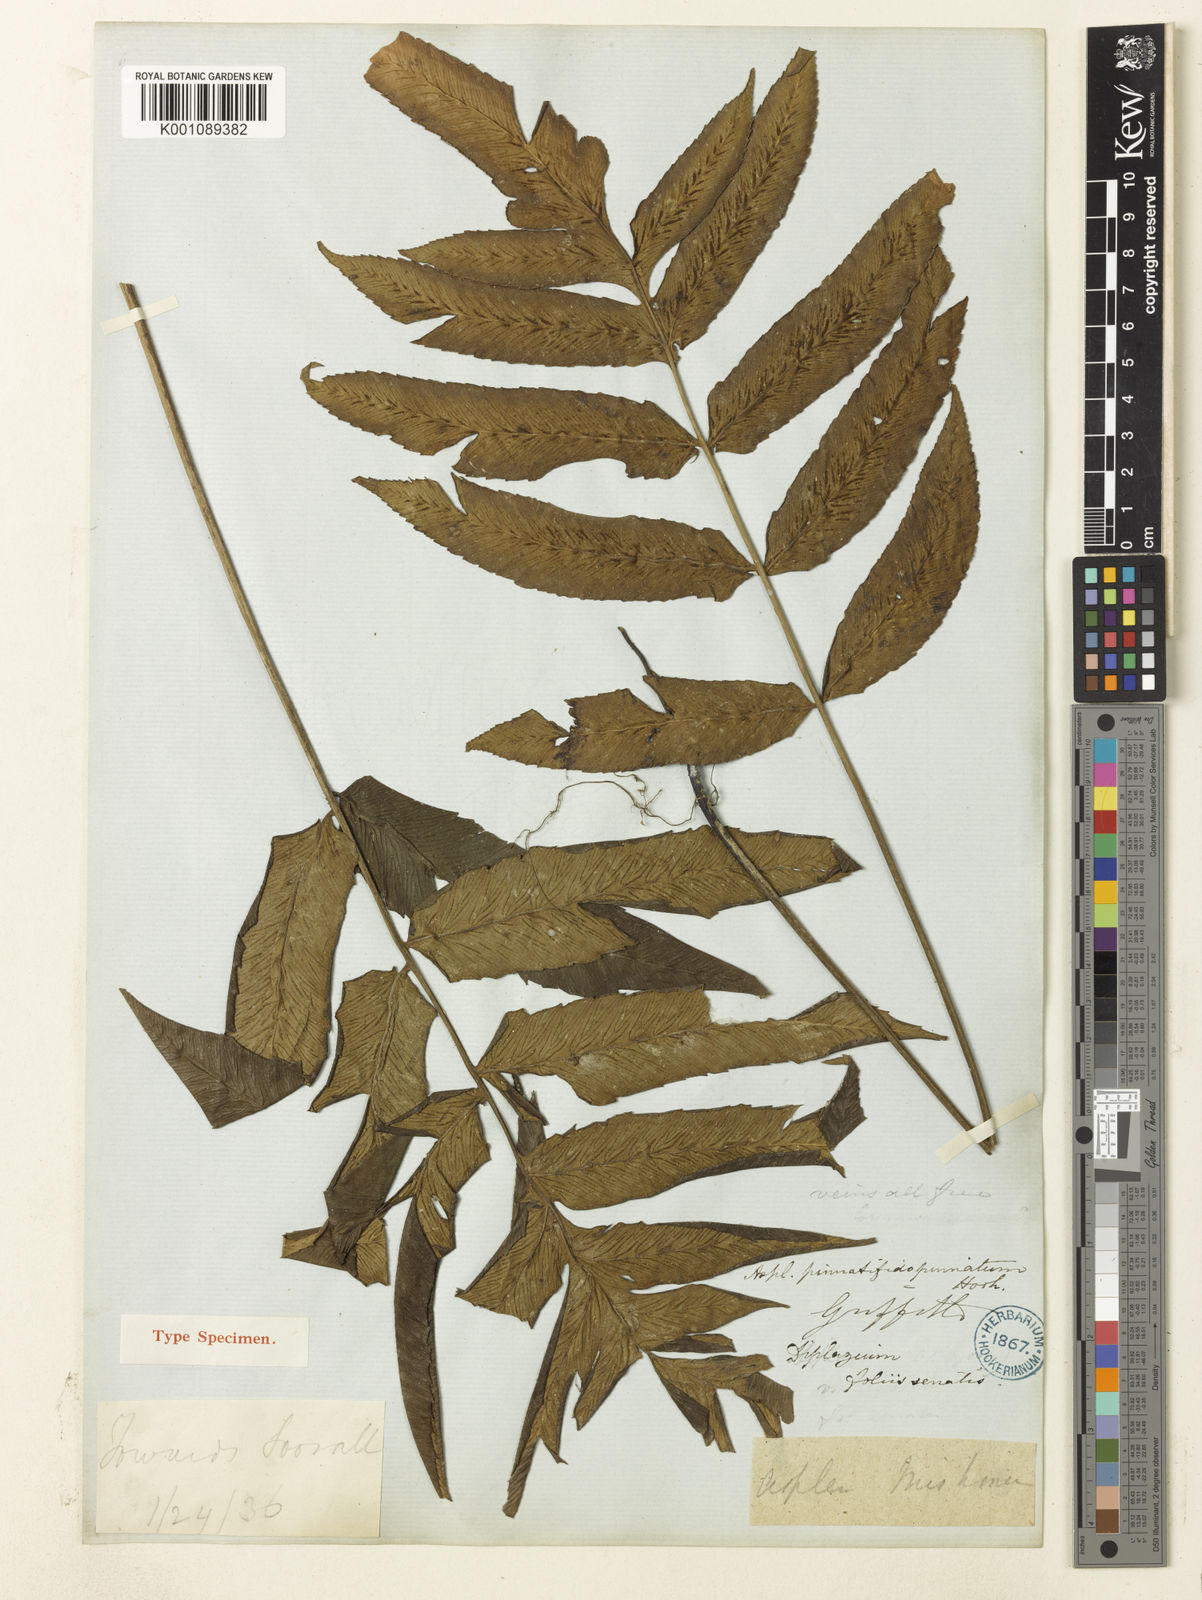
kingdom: Plantae
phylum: Tracheophyta
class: Polypodiopsida
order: Polypodiales
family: Athyriaceae
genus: Diplazium
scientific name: Diplazium pinnatifidopinnatum
